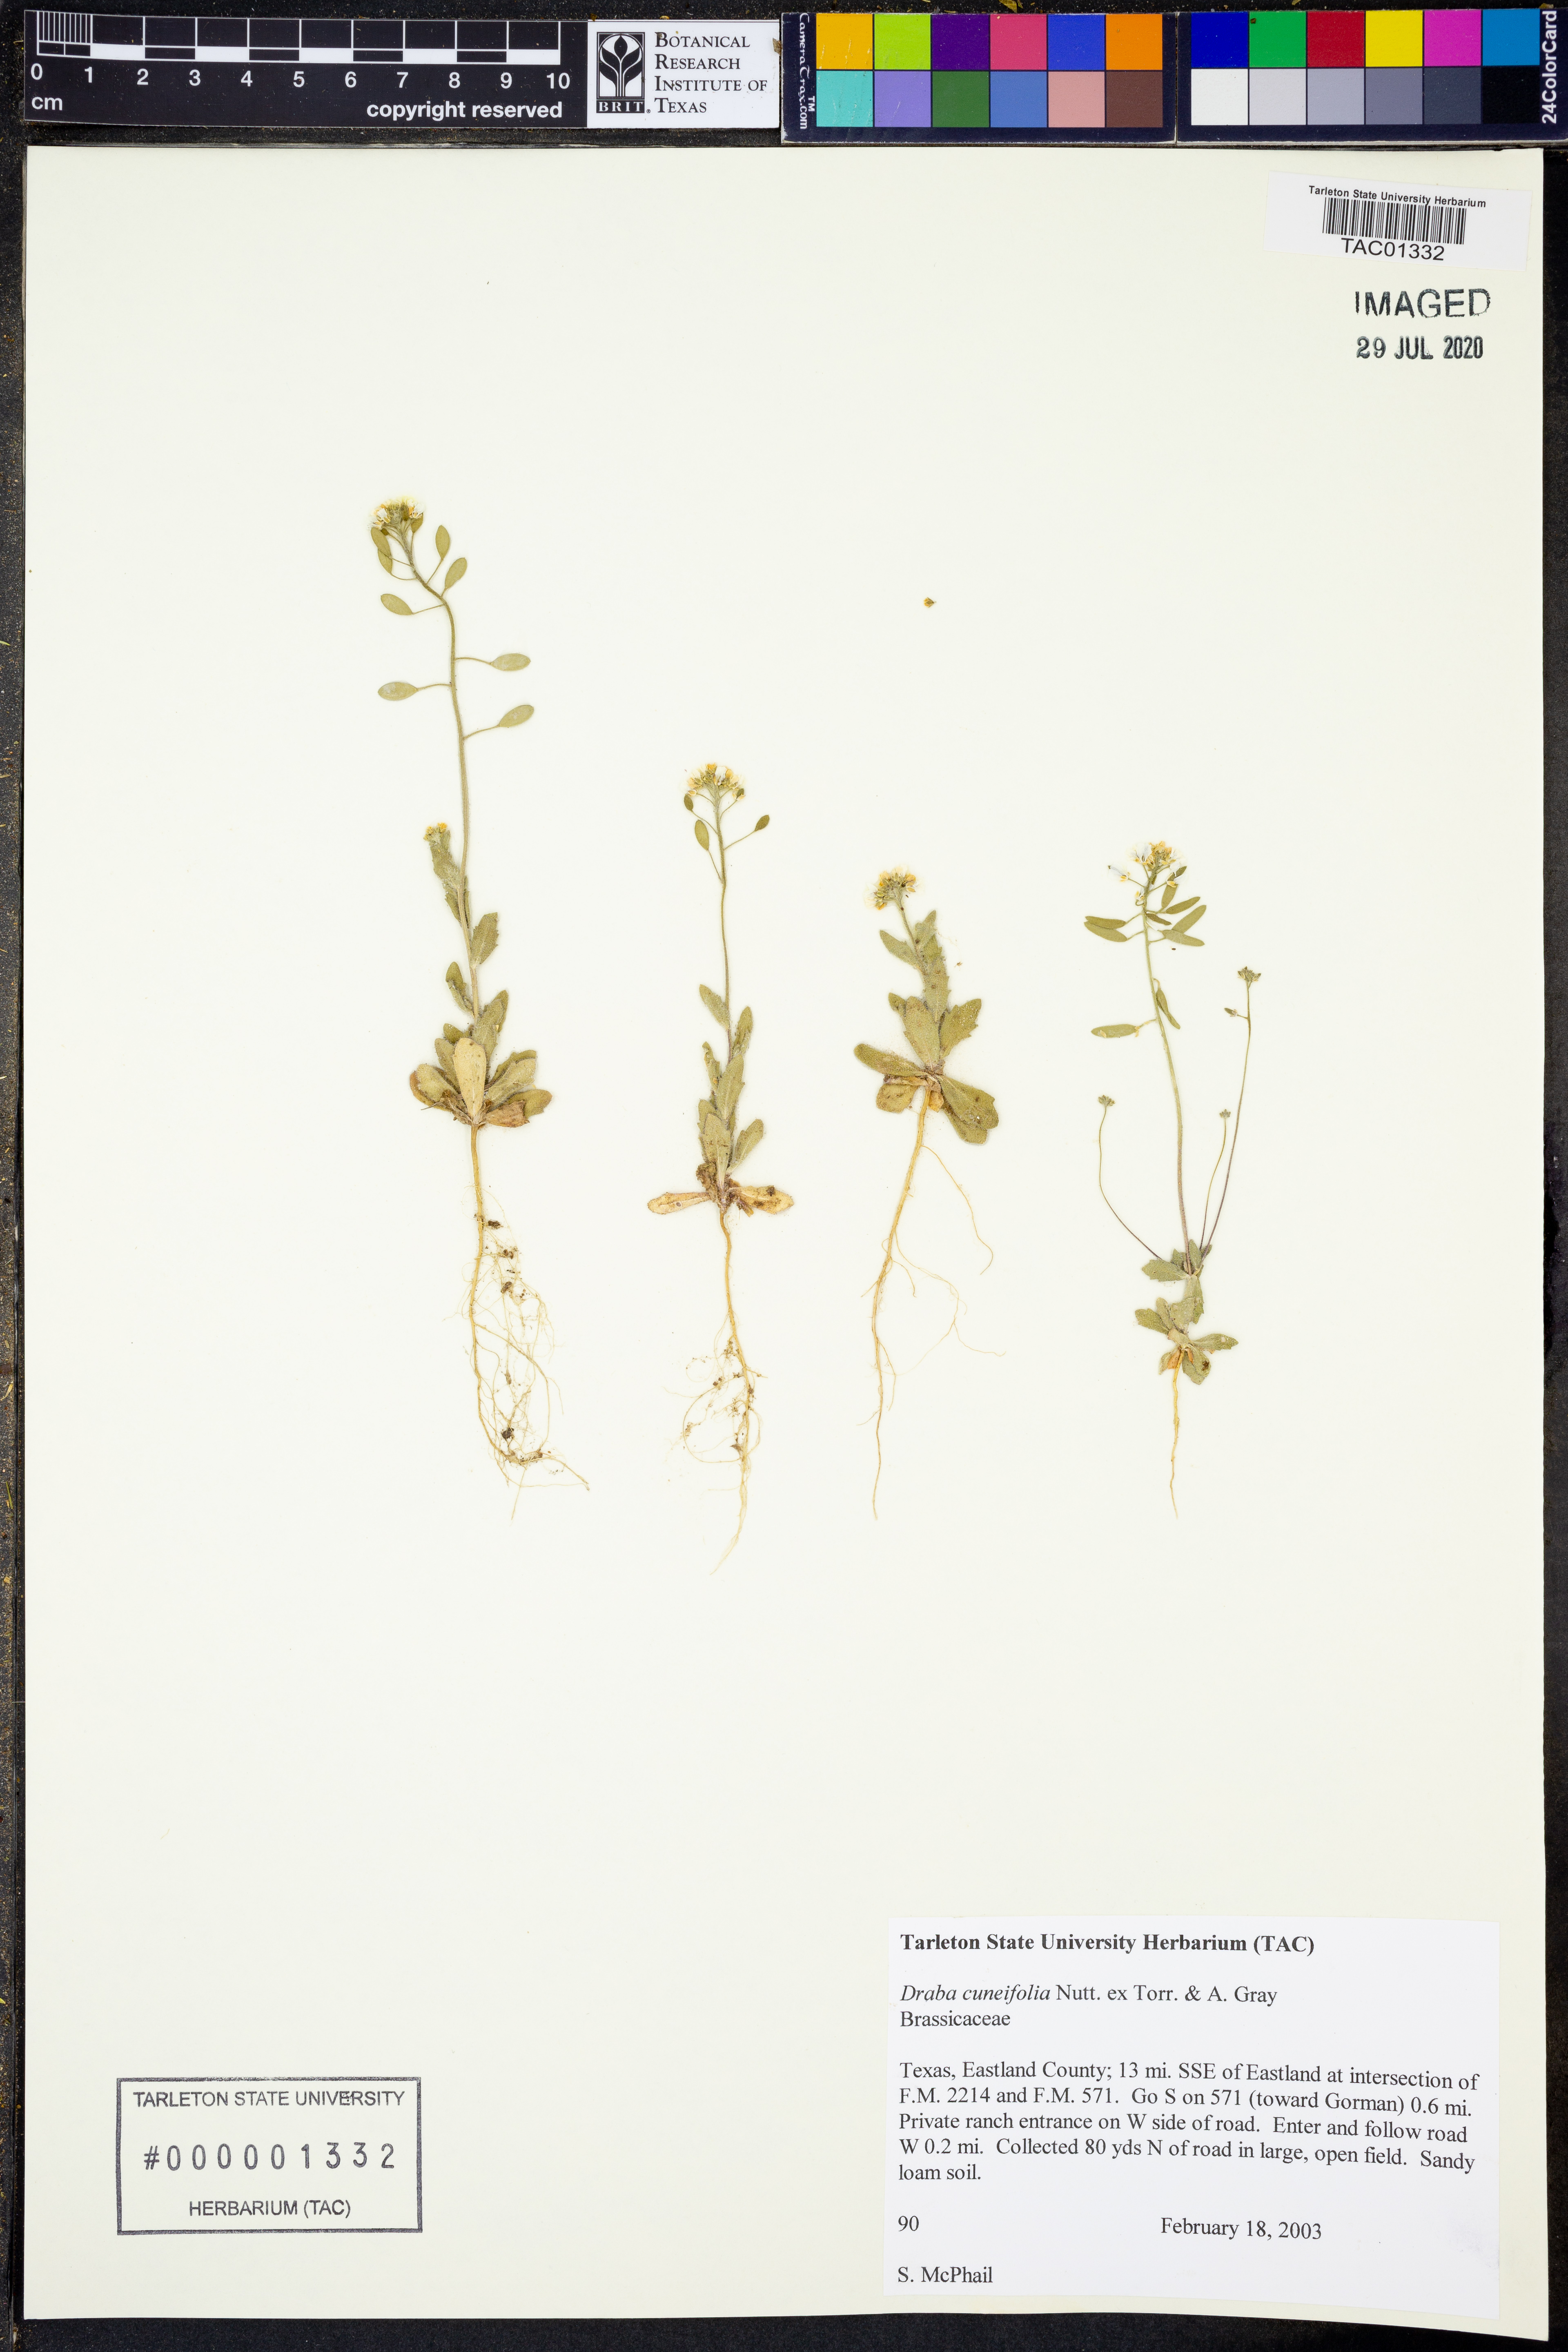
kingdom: Plantae
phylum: Tracheophyta
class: Magnoliopsida
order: Brassicales
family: Brassicaceae
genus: Tomostima
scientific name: Tomostima cuneifolia
